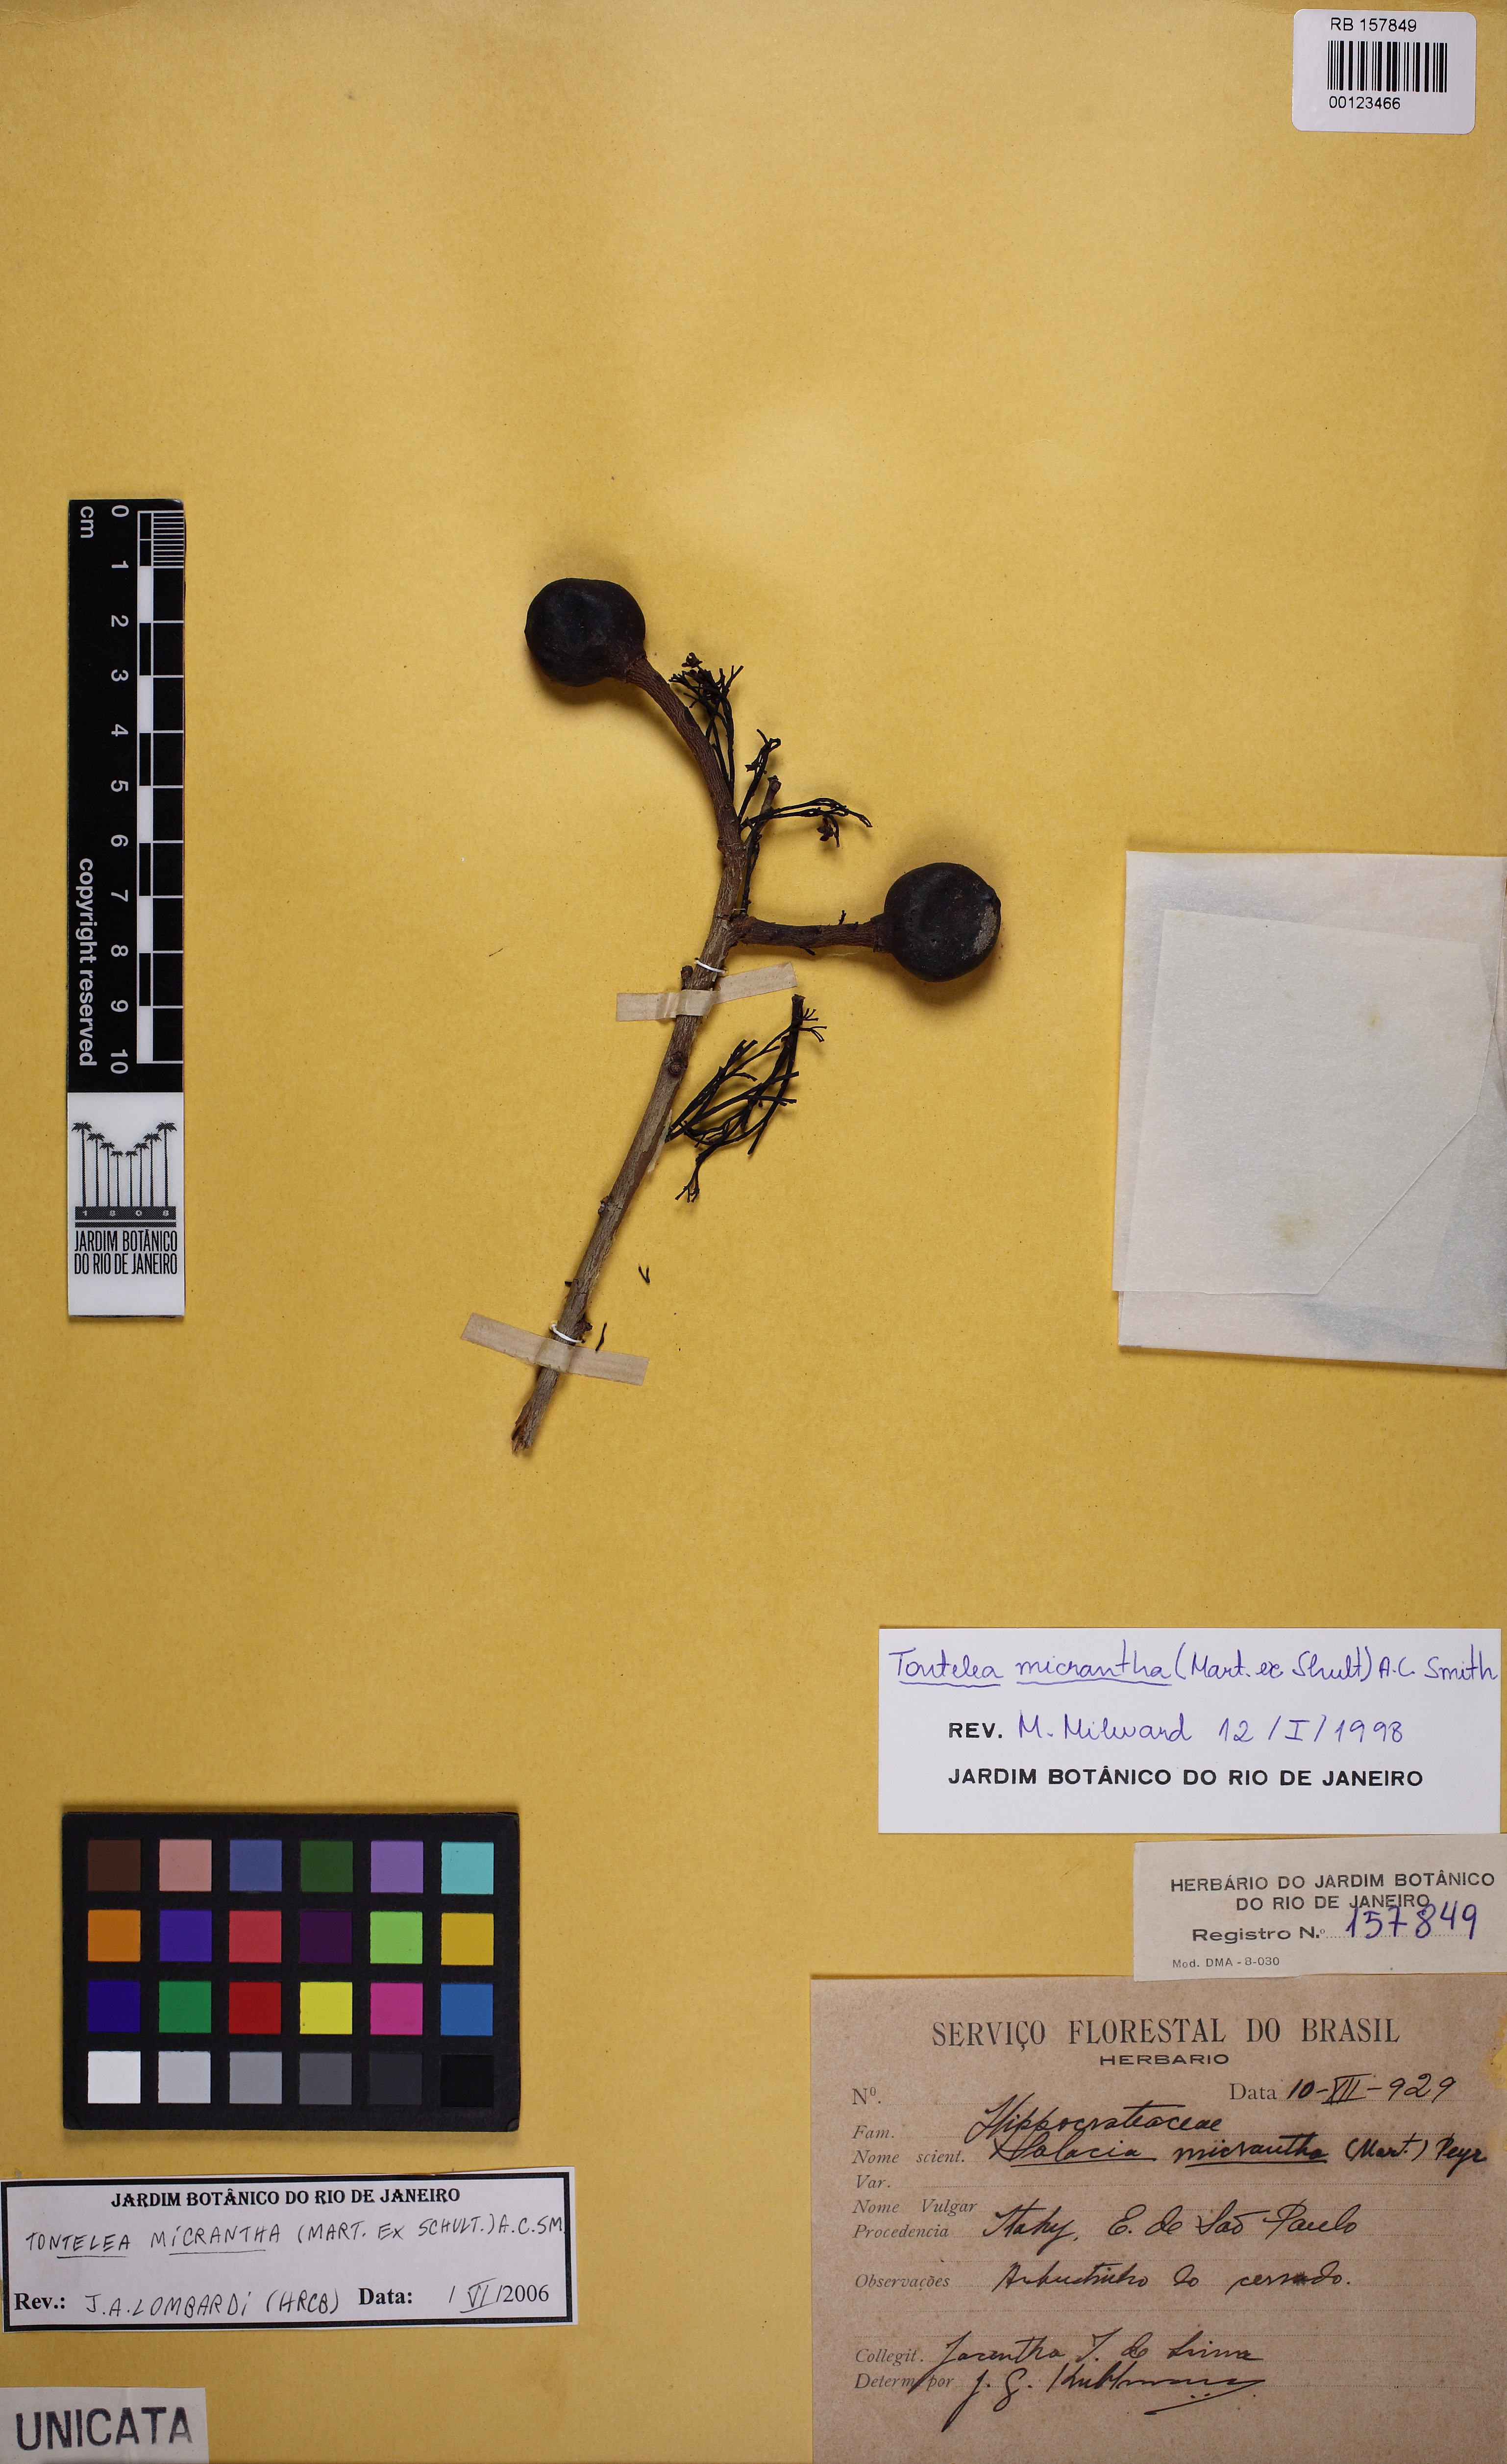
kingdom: Plantae
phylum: Tracheophyta
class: Magnoliopsida
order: Celastrales
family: Celastraceae
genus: Tontelea
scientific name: Tontelea micrantha
